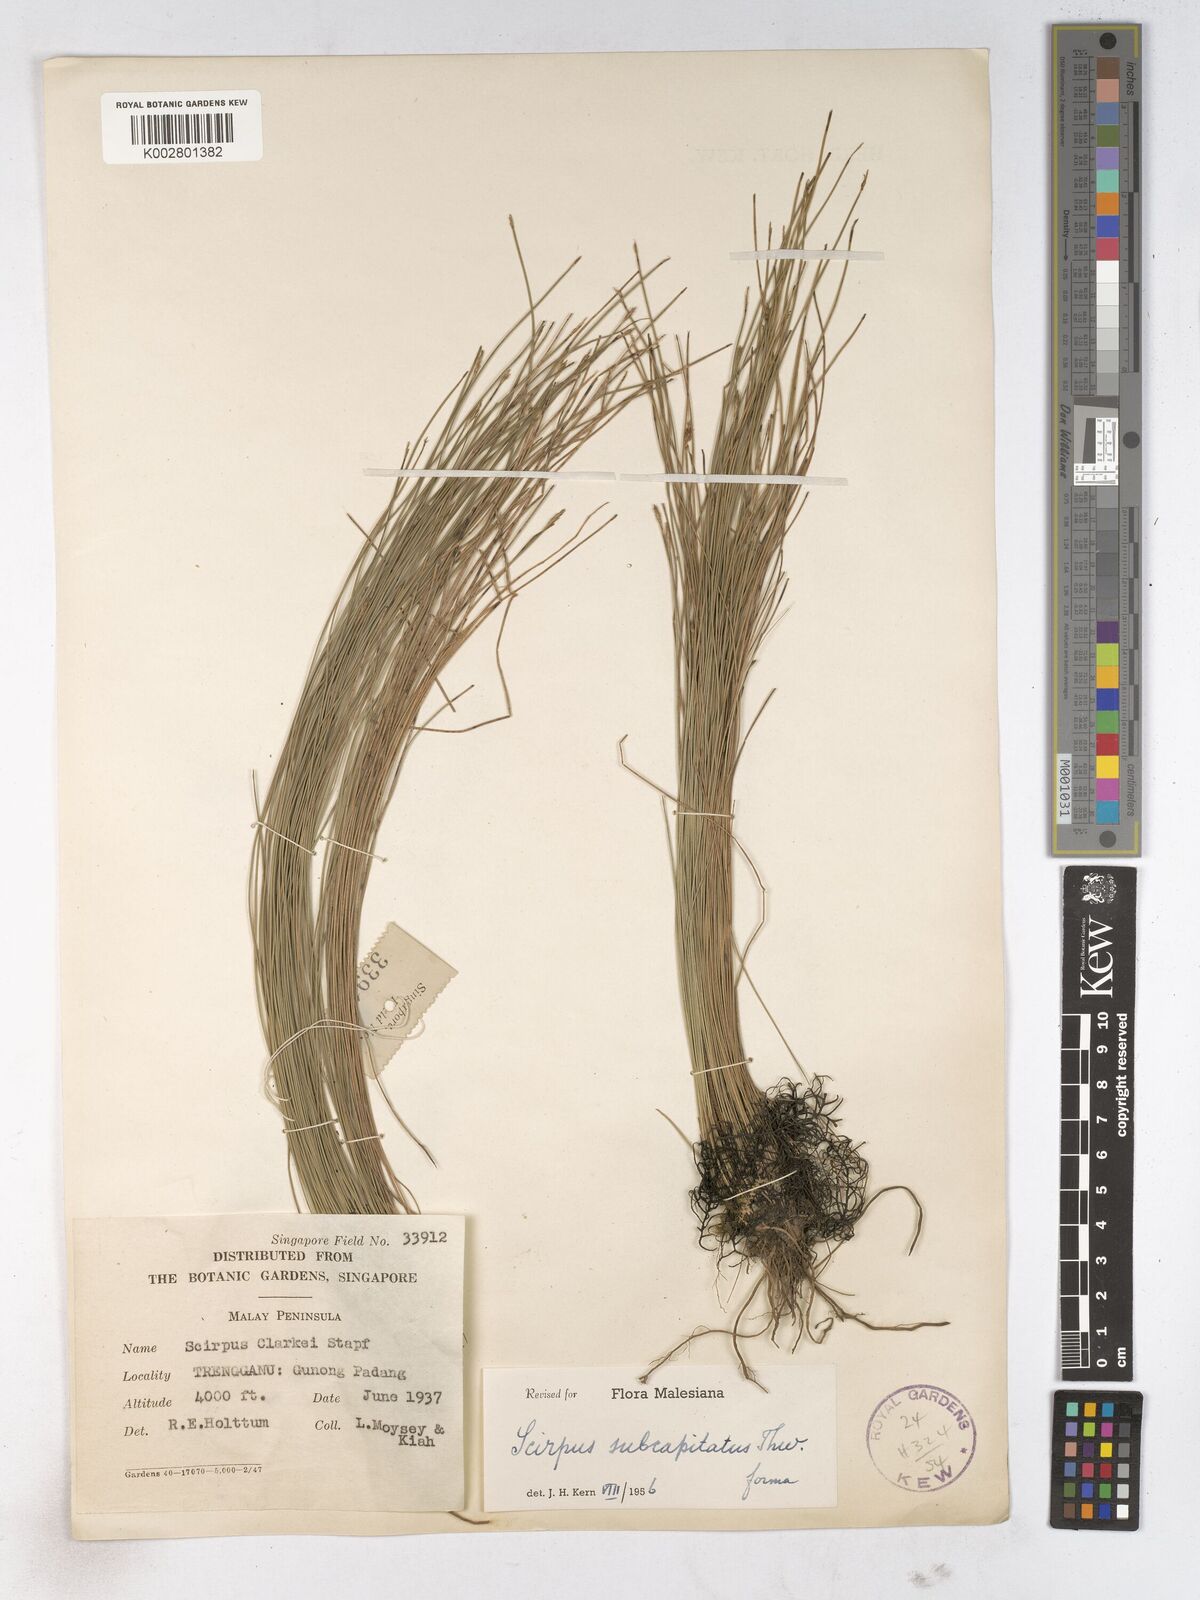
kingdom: Plantae
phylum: Tracheophyta
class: Liliopsida
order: Poales
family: Cyperaceae
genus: Trichophorum
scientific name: Trichophorum subcapitatum
